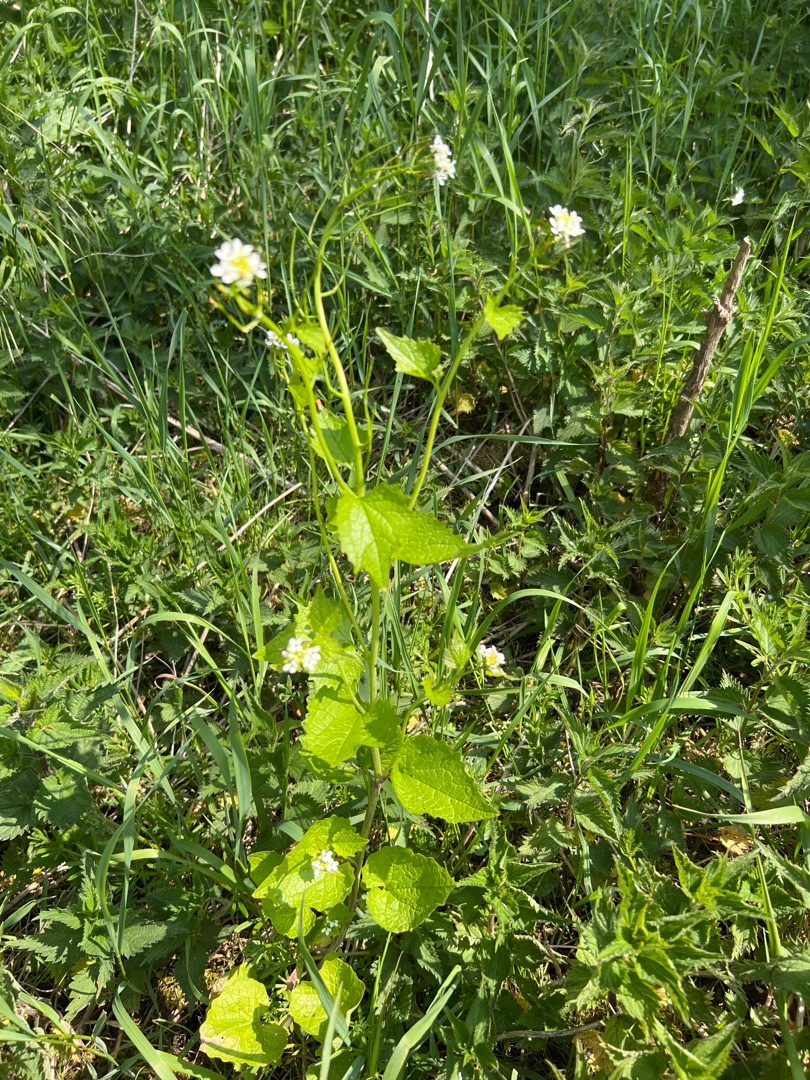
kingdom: Plantae
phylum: Tracheophyta
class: Magnoliopsida
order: Brassicales
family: Brassicaceae
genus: Alliaria
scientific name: Alliaria petiolata
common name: Løgkarse
